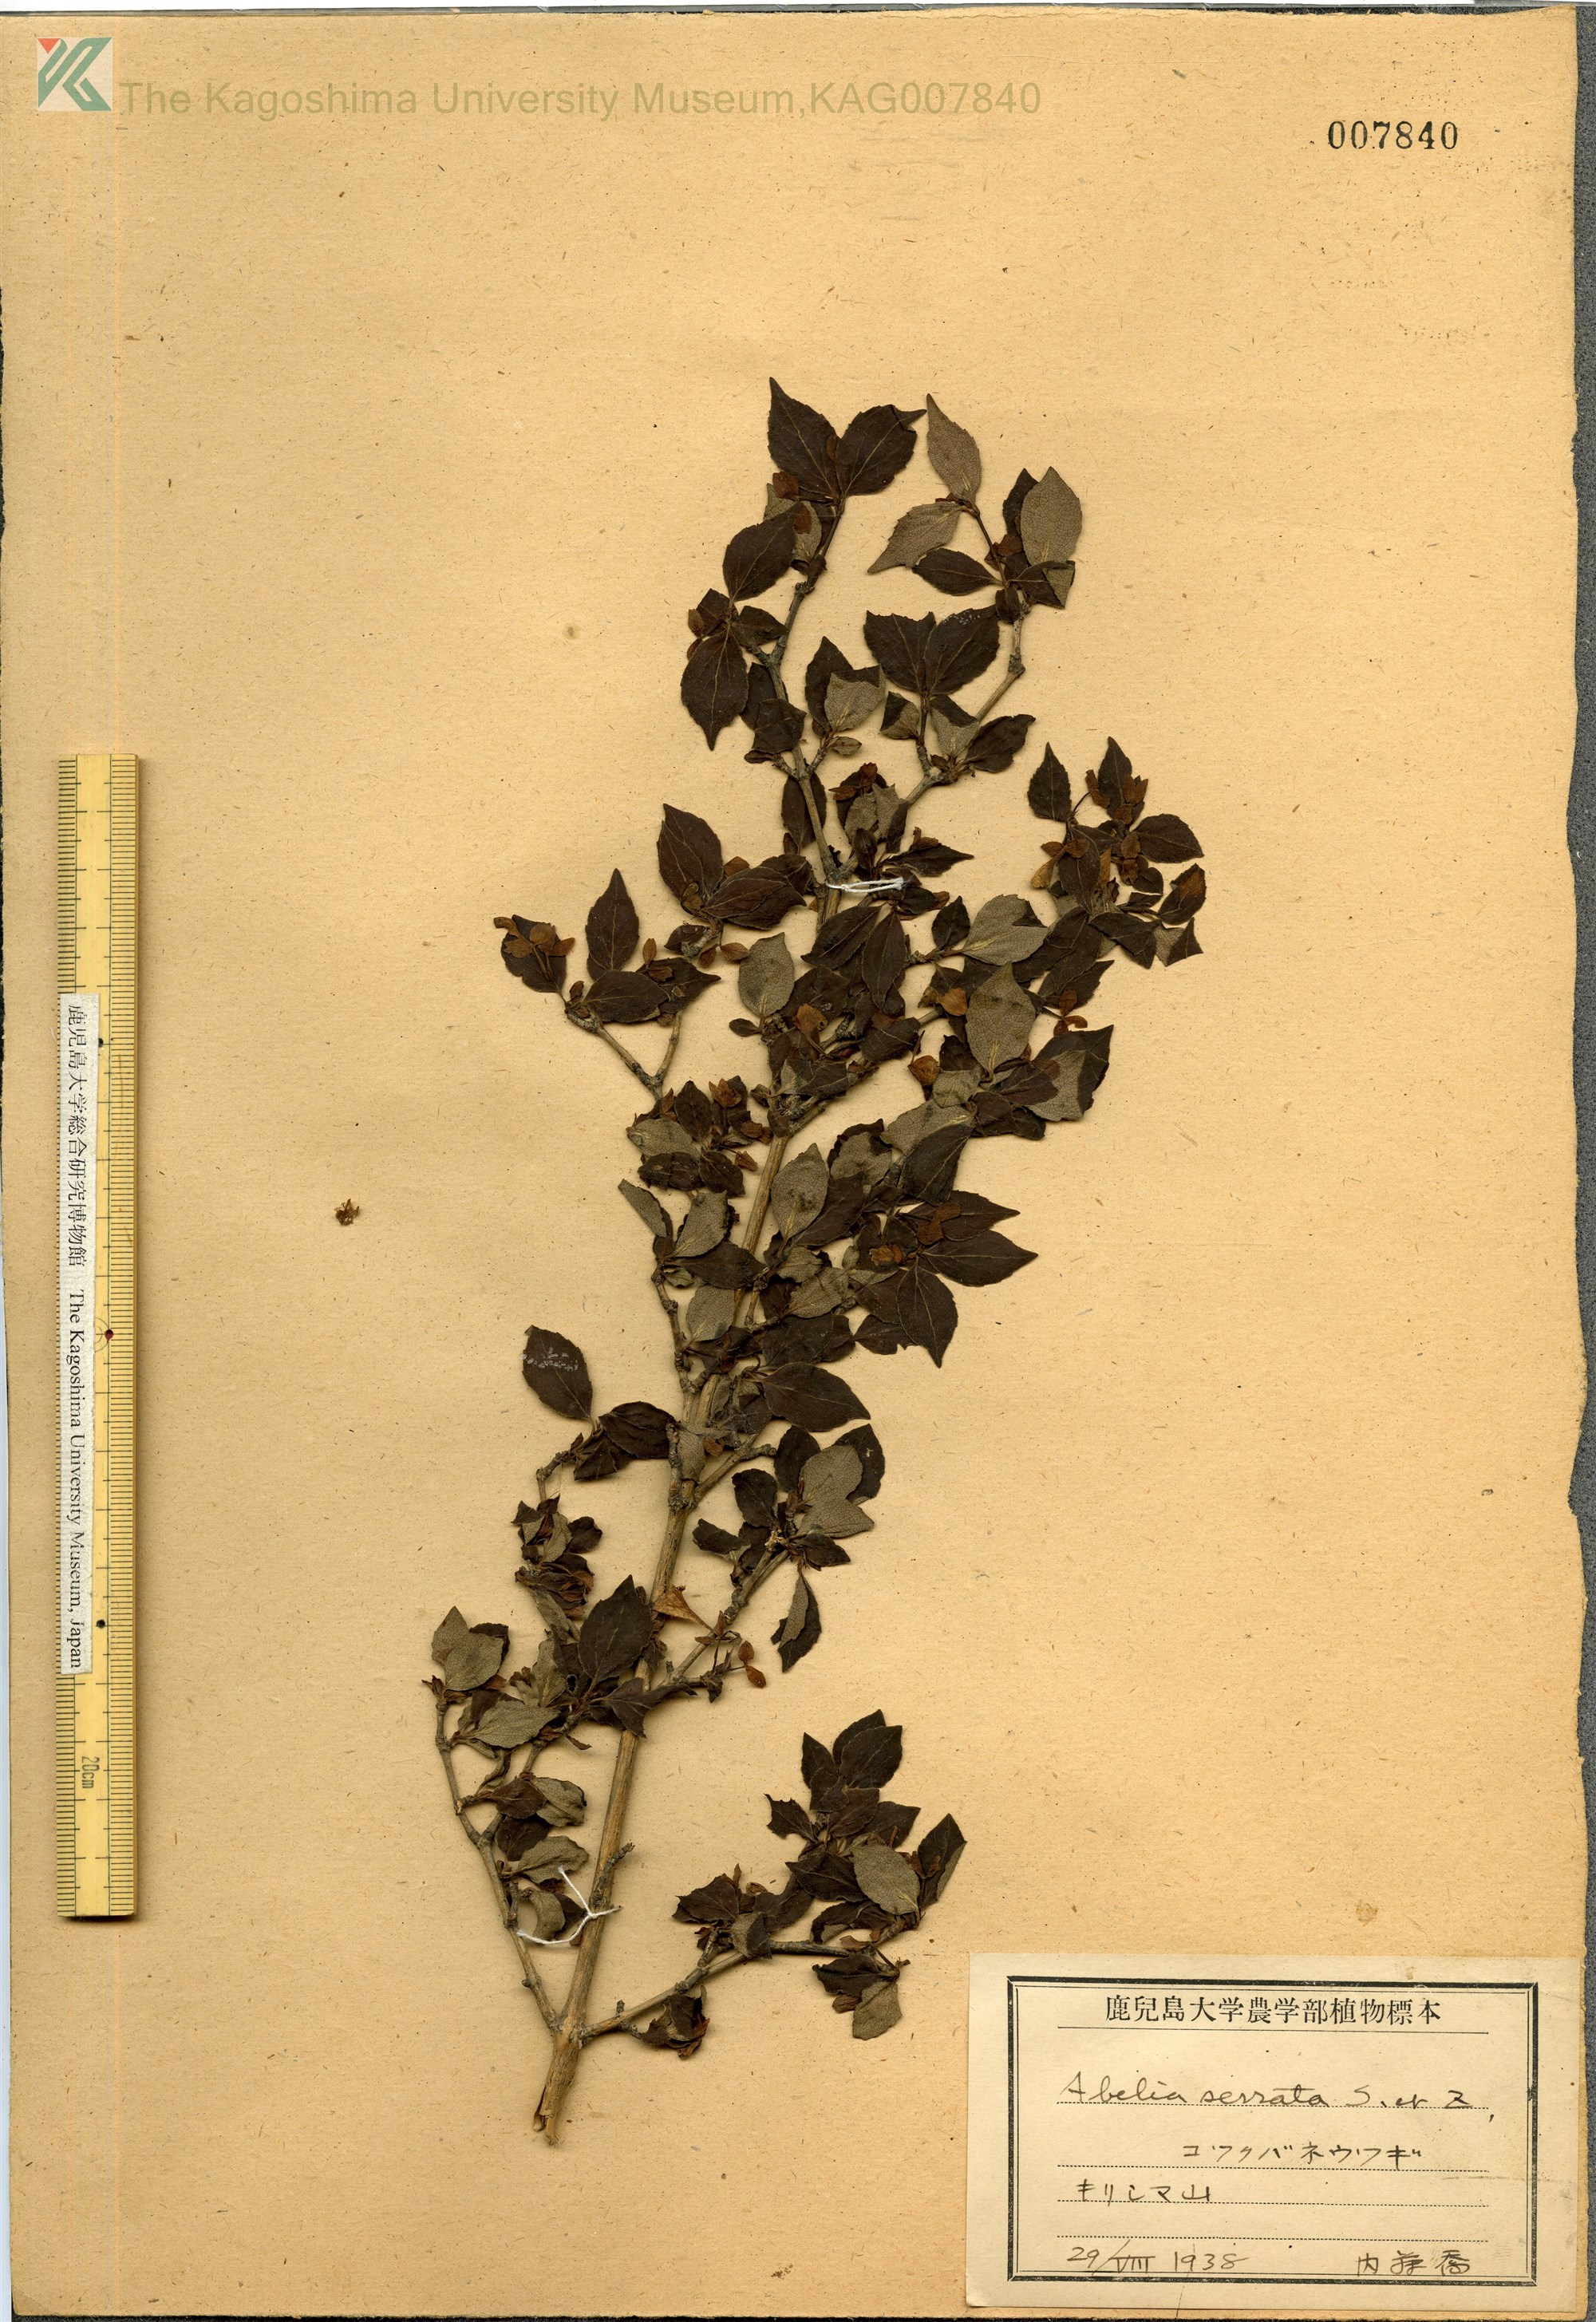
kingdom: Plantae
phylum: Tracheophyta
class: Magnoliopsida
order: Dipsacales
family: Caprifoliaceae
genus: Diabelia
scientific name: Diabelia serrata
